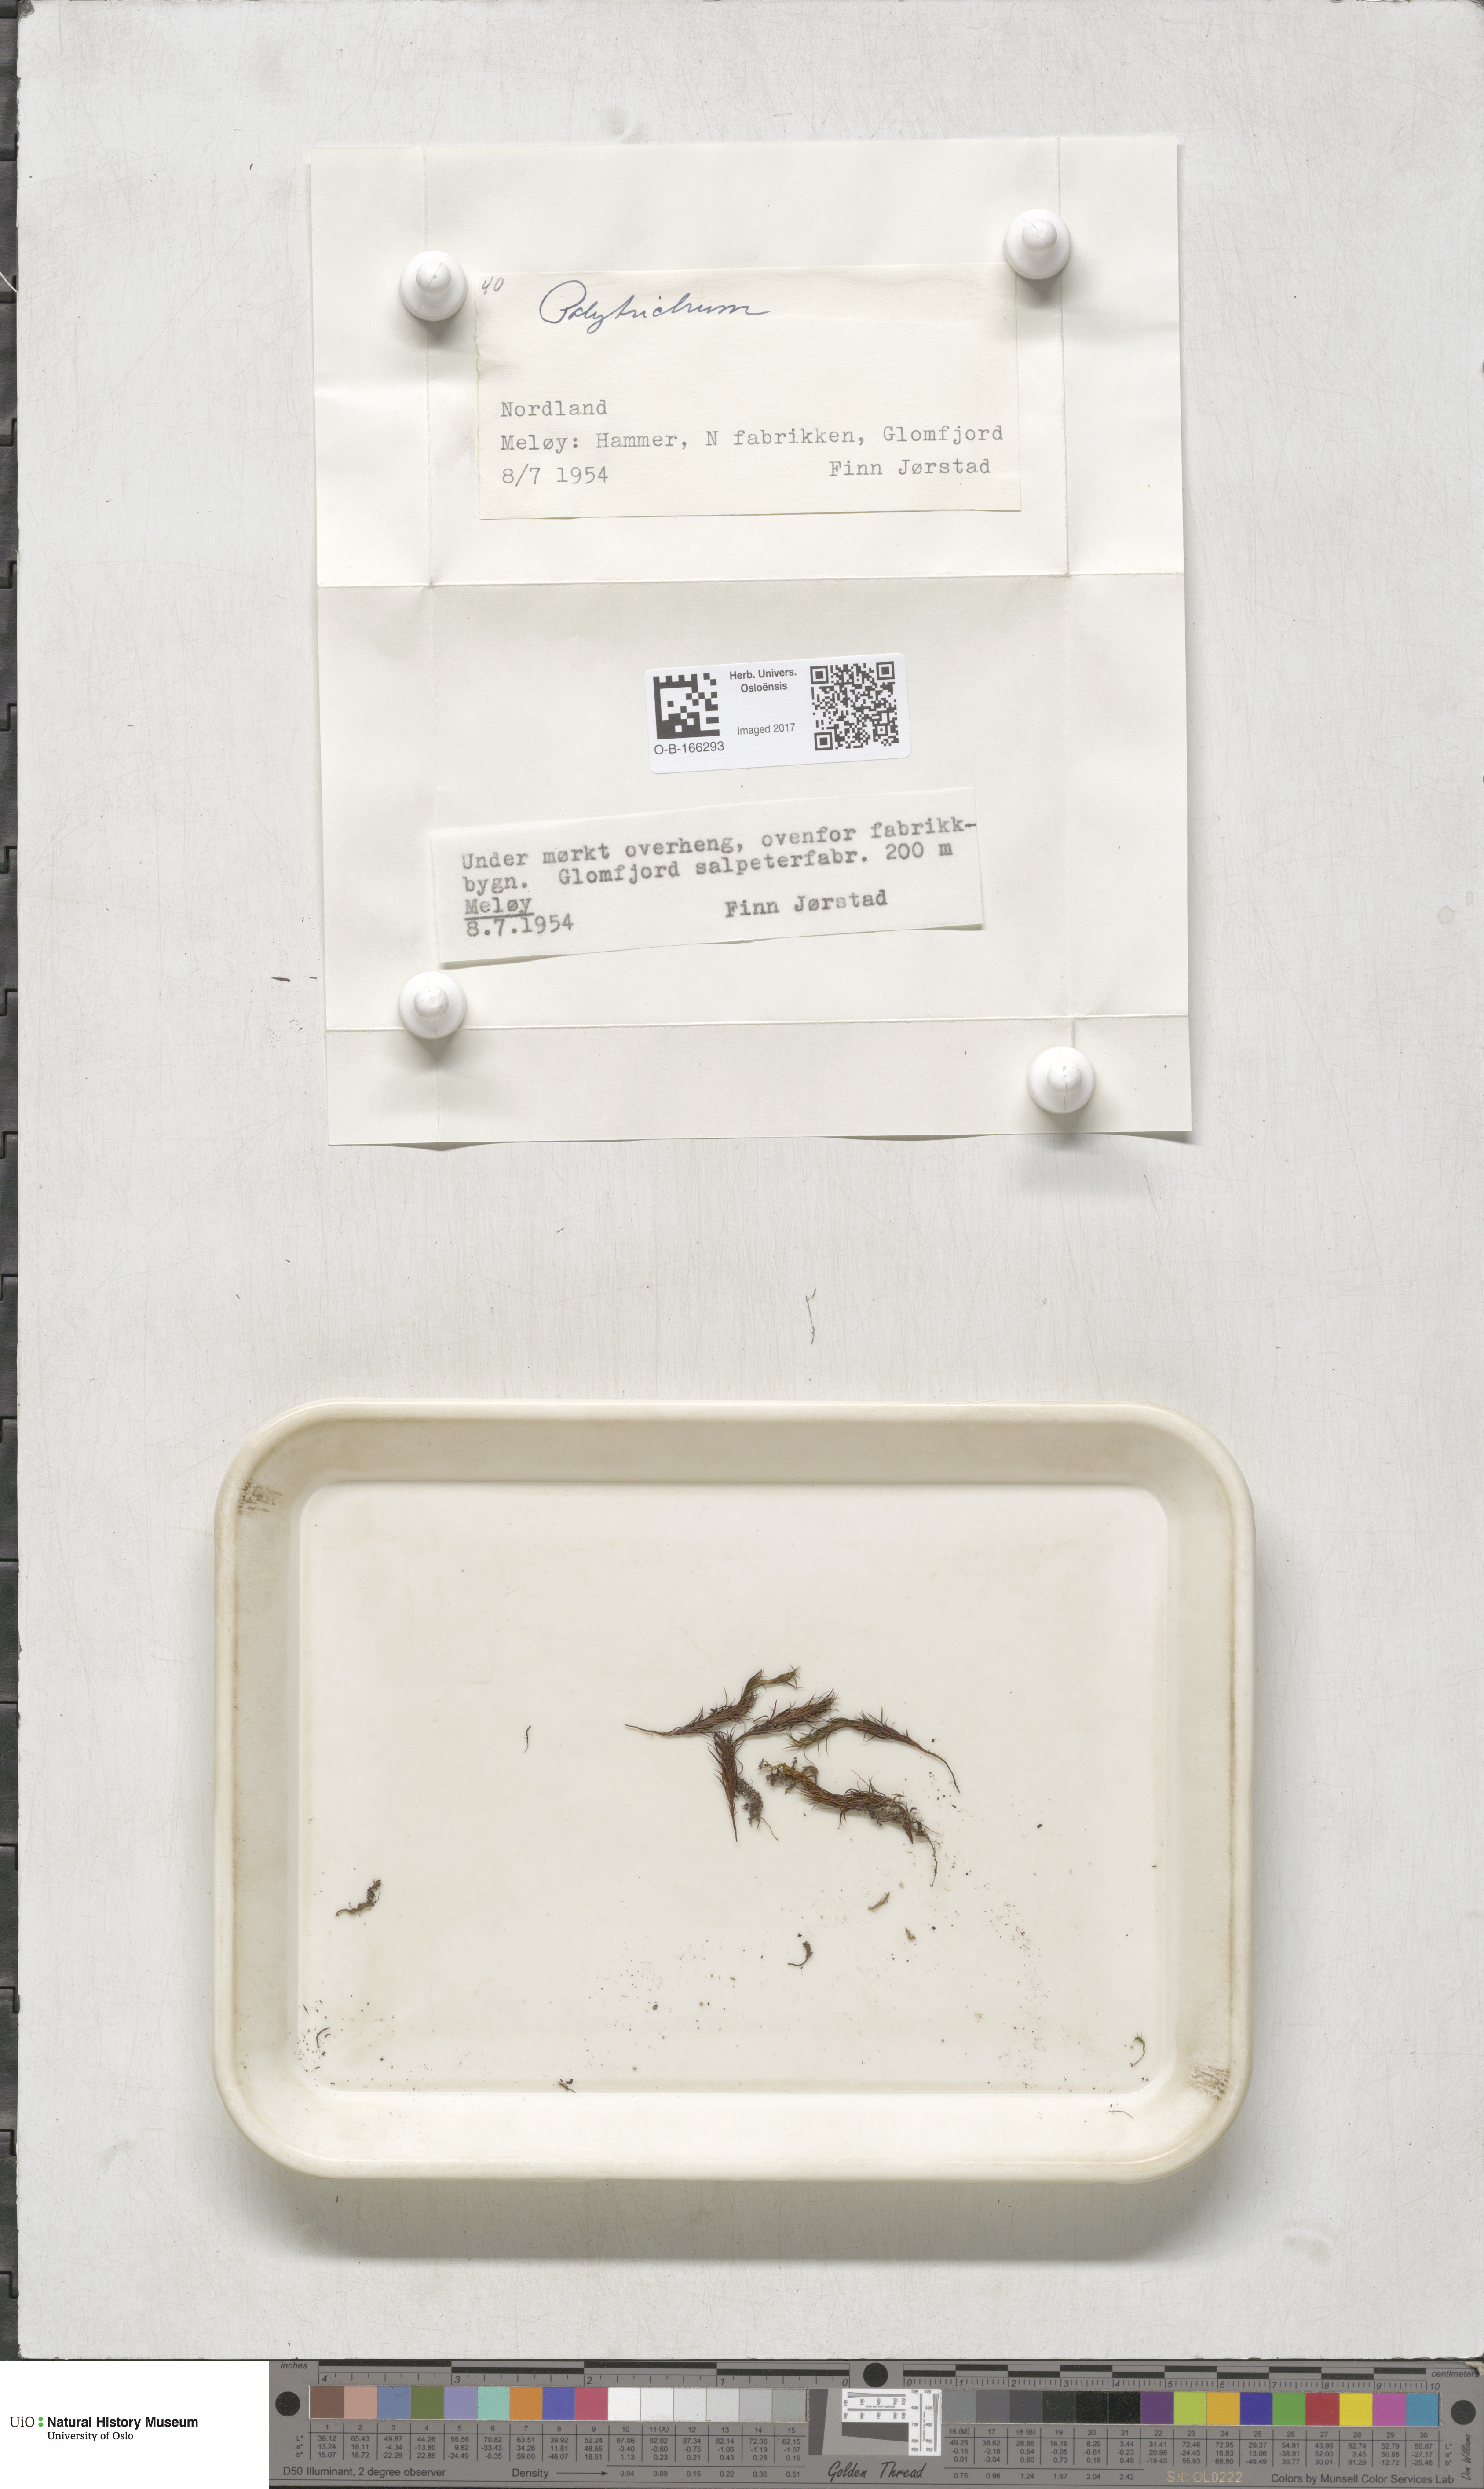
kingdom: Plantae
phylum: Bryophyta
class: Polytrichopsida
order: Polytrichales
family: Polytrichaceae
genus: Polytrichum
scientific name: Polytrichum
